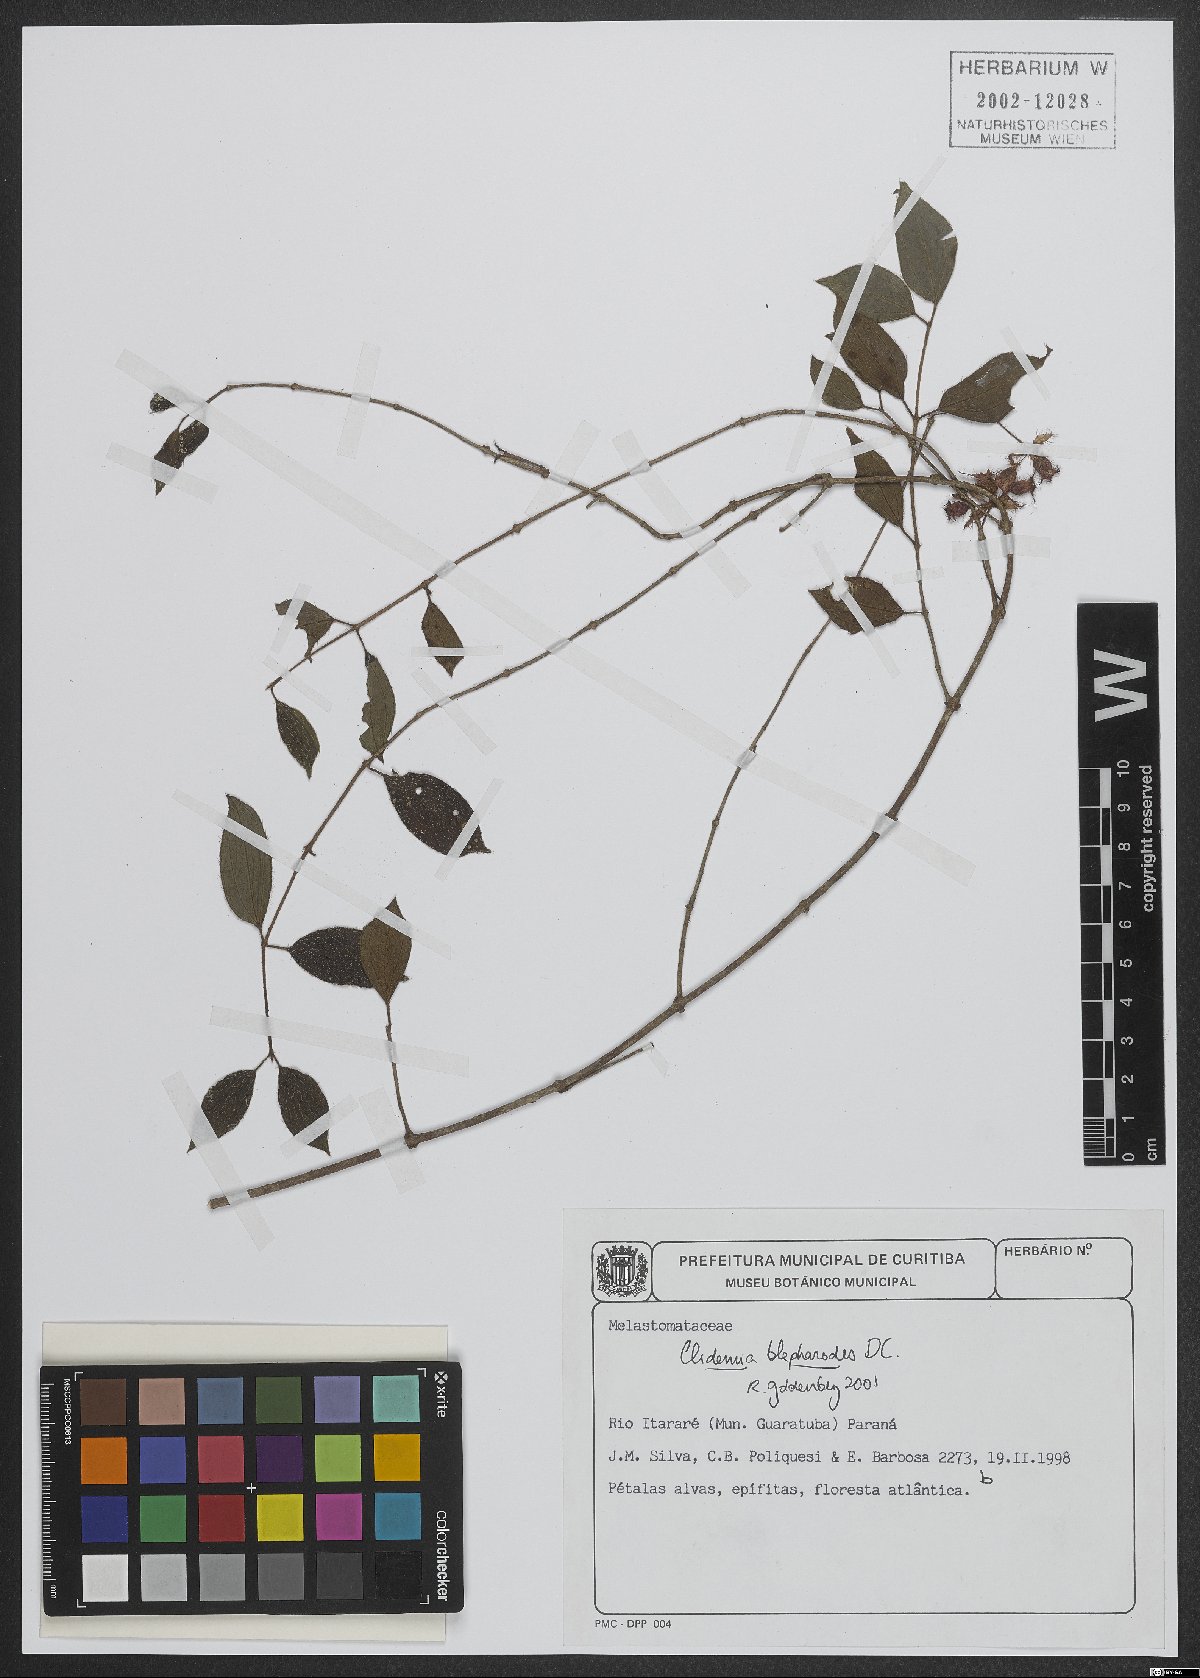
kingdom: Plantae
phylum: Tracheophyta
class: Magnoliopsida
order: Myrtales
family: Melastomataceae
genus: Miconia
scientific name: Miconia blepharodes
